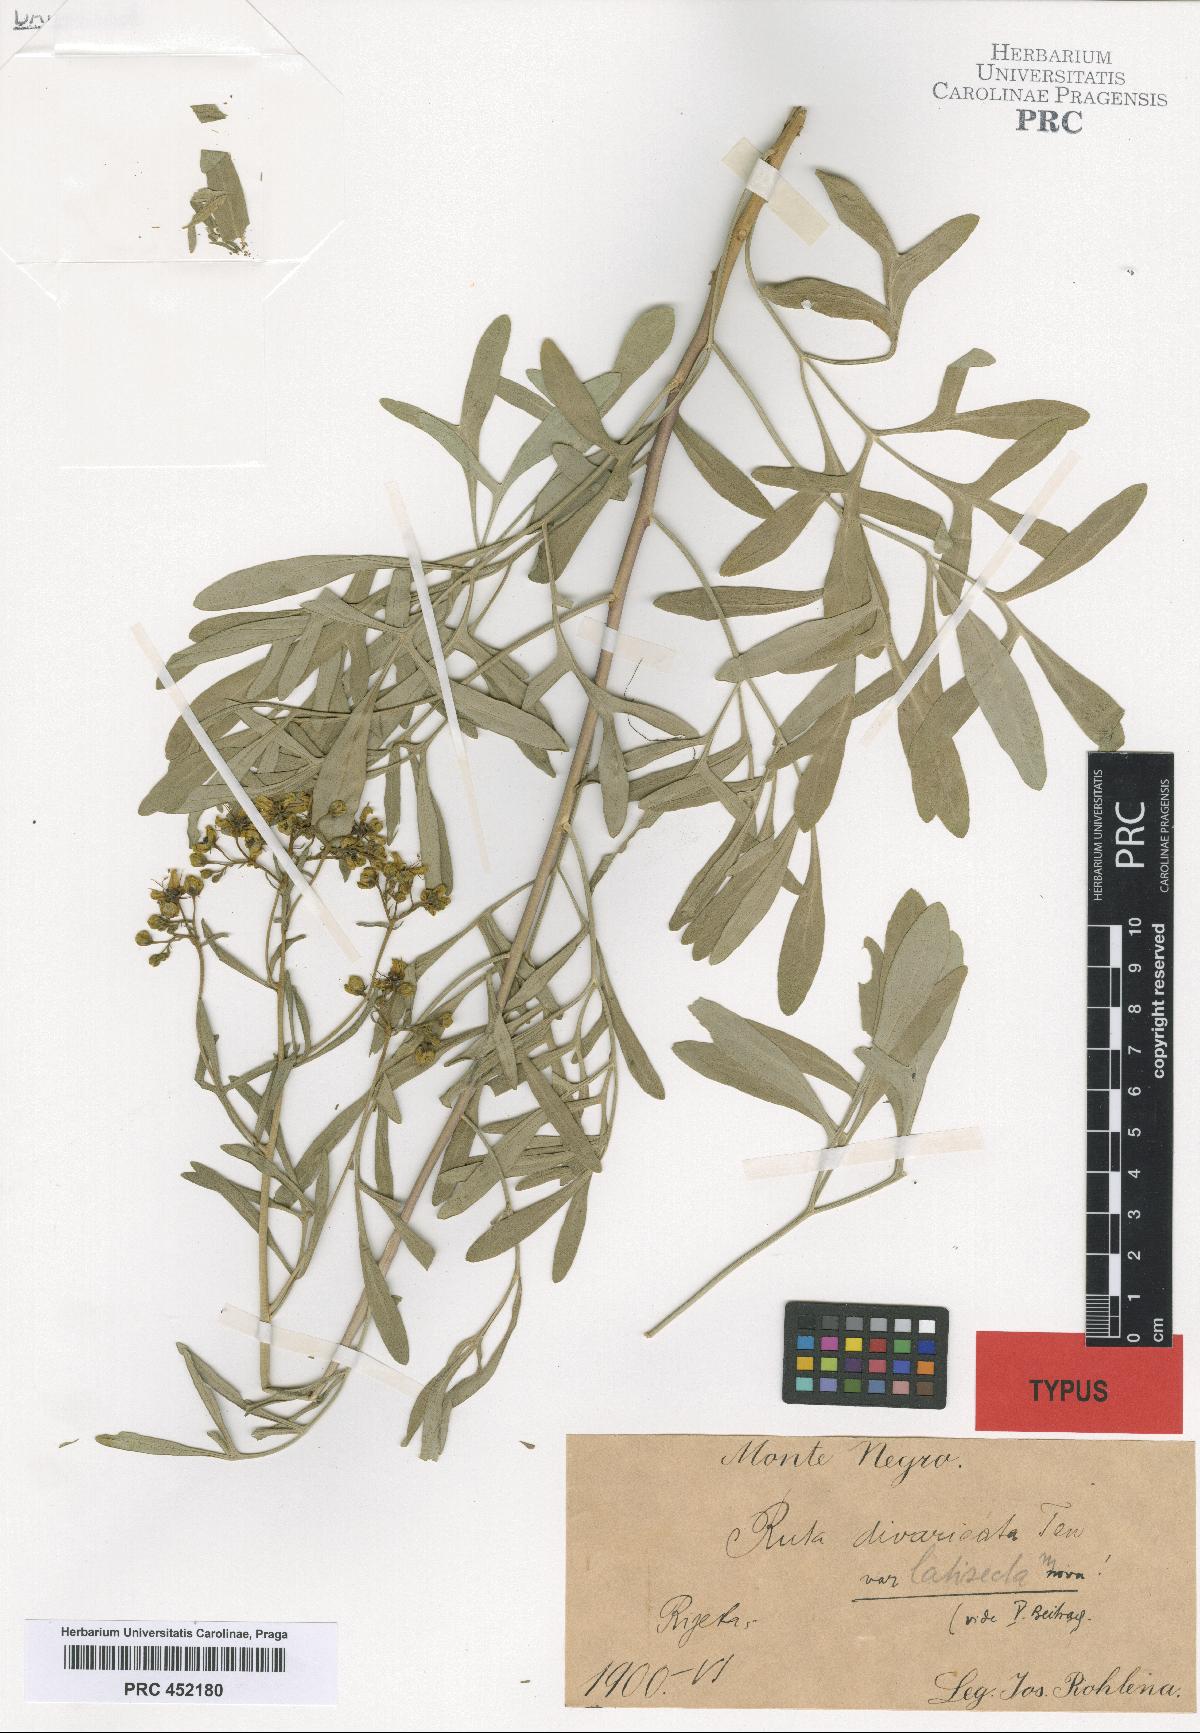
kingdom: Plantae
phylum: Tracheophyta
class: Magnoliopsida
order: Sapindales
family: Rutaceae
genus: Ruta
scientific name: Ruta
